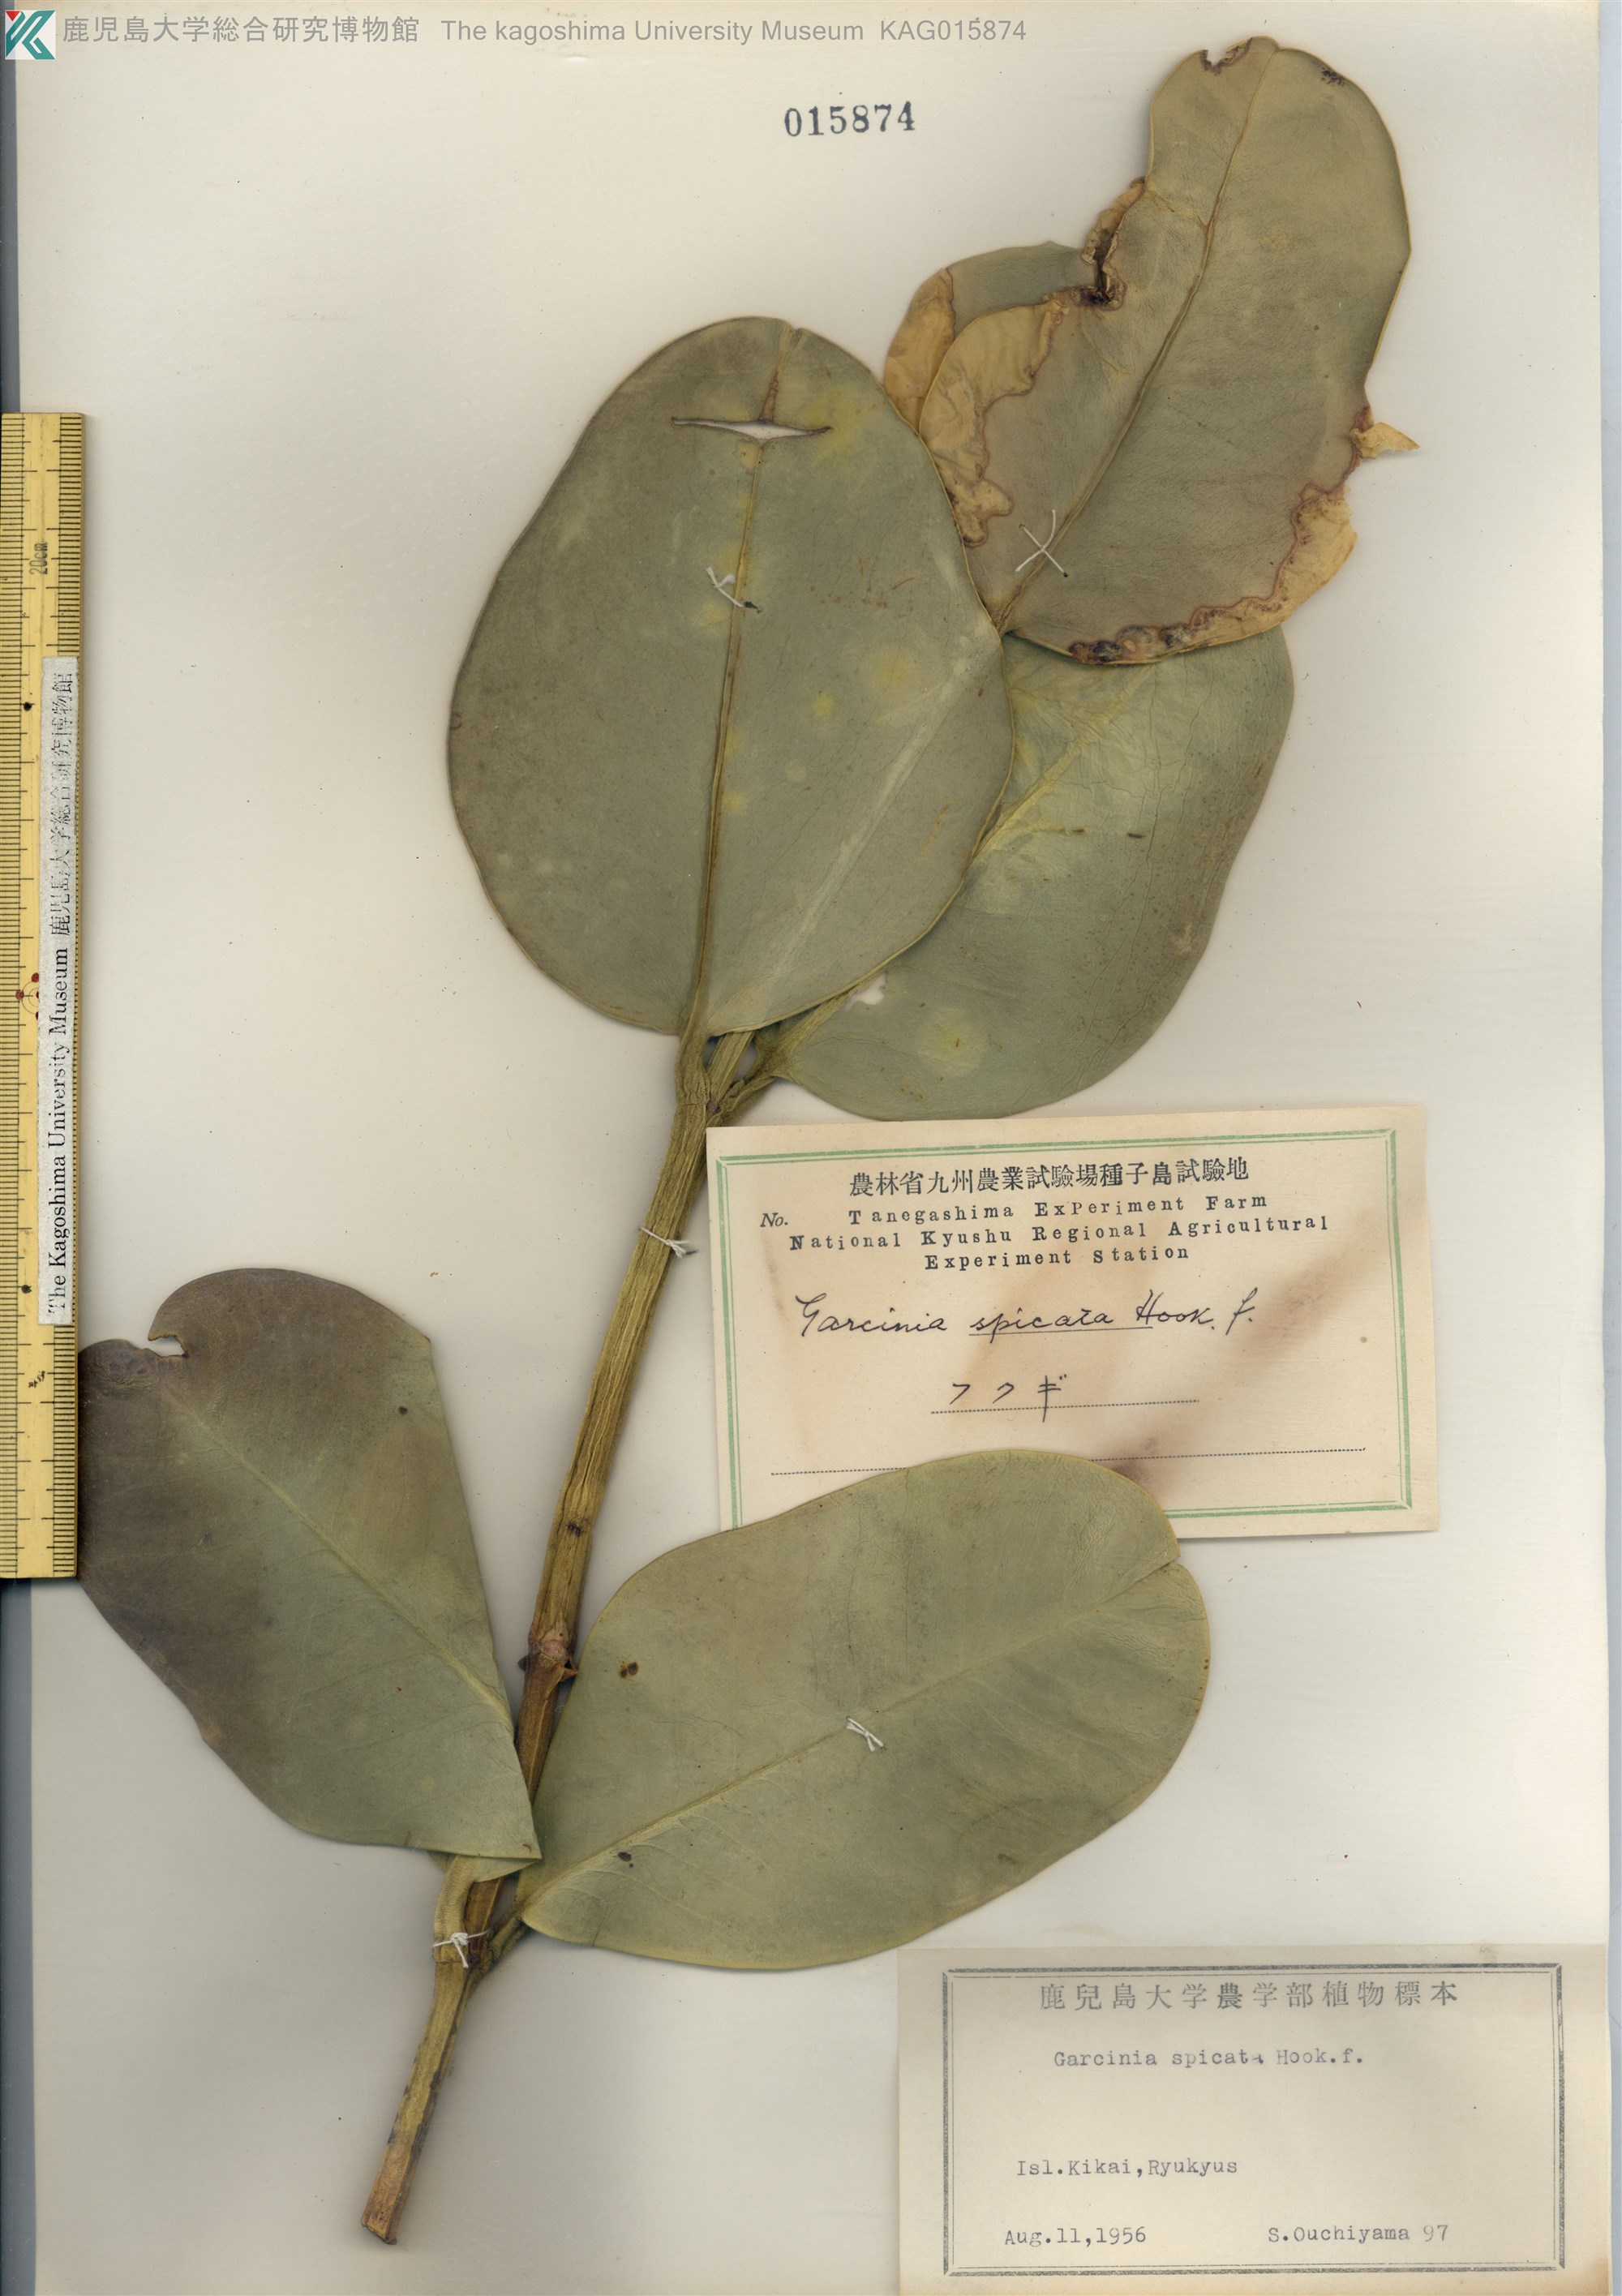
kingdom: Plantae
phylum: Tracheophyta
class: Magnoliopsida
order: Malpighiales
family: Clusiaceae
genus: Garcinia
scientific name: Garcinia subelliptica
